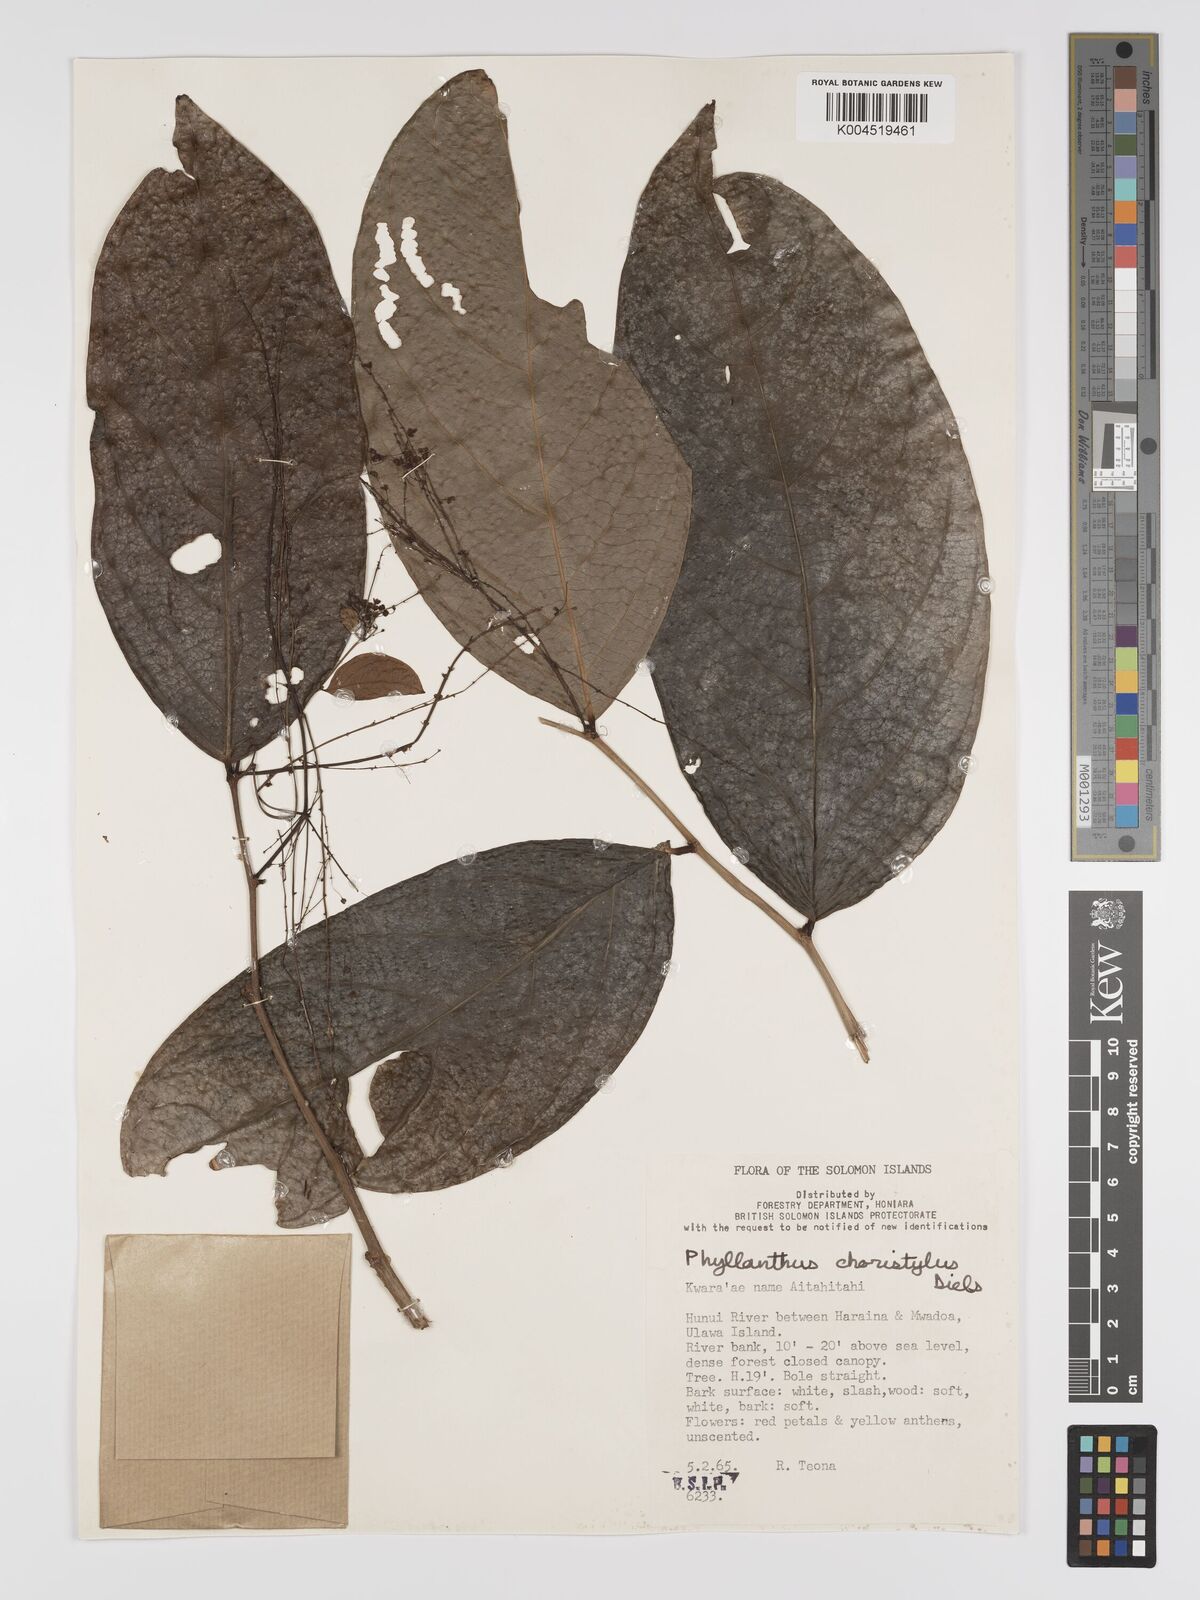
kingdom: Plantae
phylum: Tracheophyta
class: Magnoliopsida
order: Malpighiales
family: Phyllanthaceae
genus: Phyllanthus
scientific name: Phyllanthus clamboides
